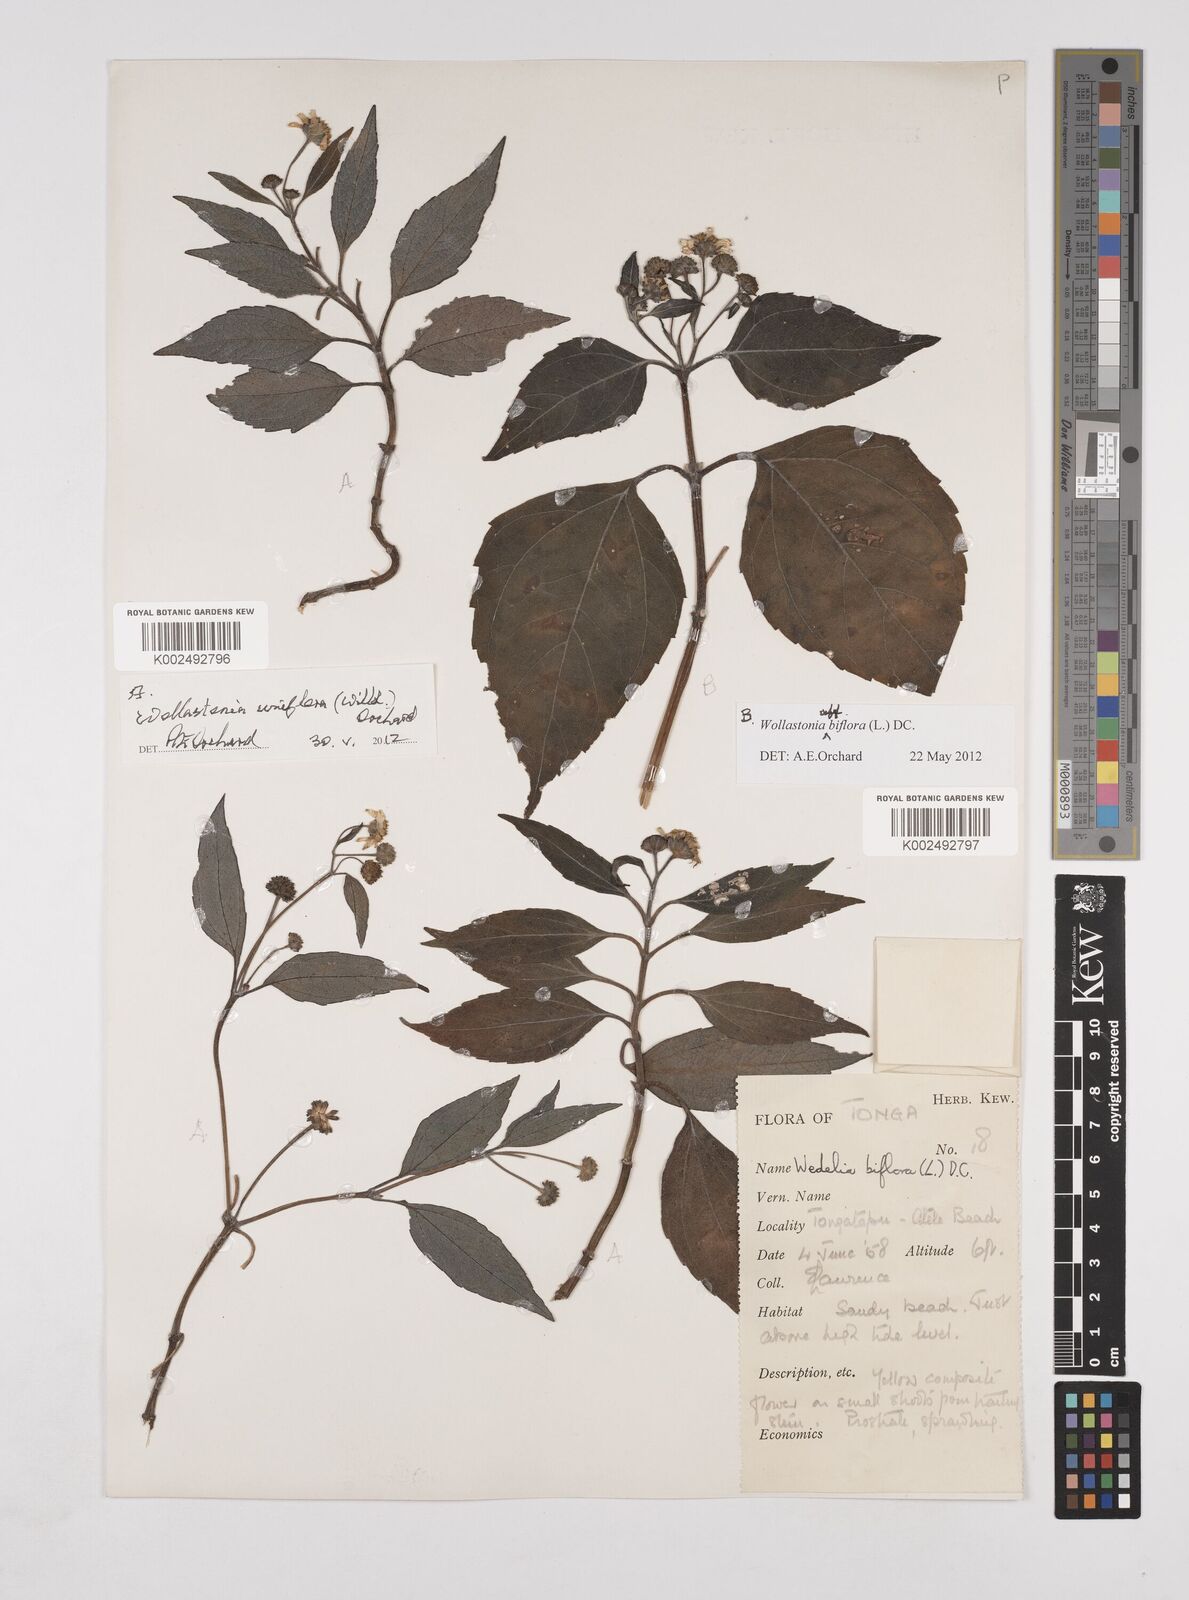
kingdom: Plantae
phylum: Tracheophyta
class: Magnoliopsida
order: Asterales
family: Asteraceae
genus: Wollastonia
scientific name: Wollastonia biflora
